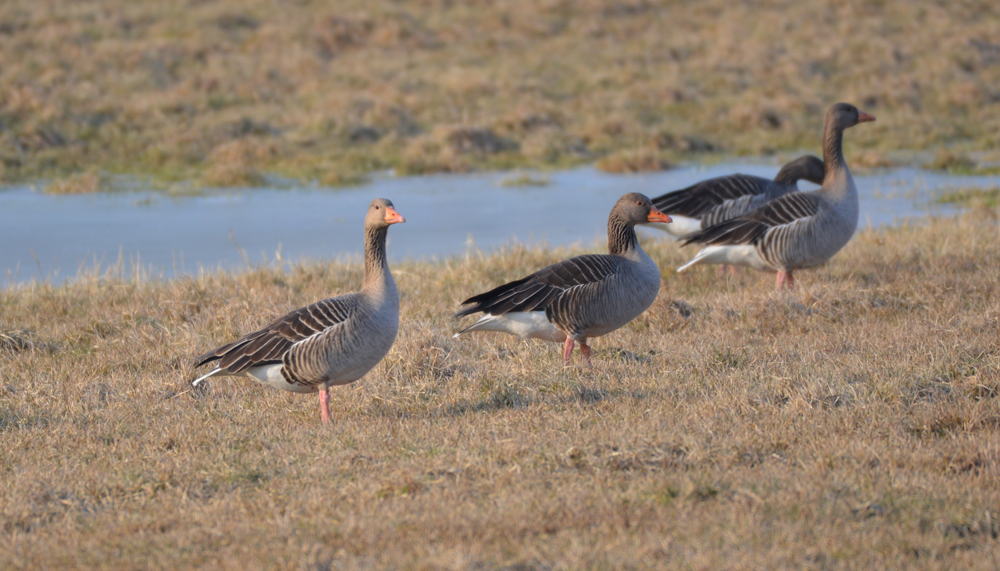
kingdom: Animalia
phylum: Chordata
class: Aves
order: Anseriformes
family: Anatidae
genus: Anser
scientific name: Anser anser
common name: Greylag goose
